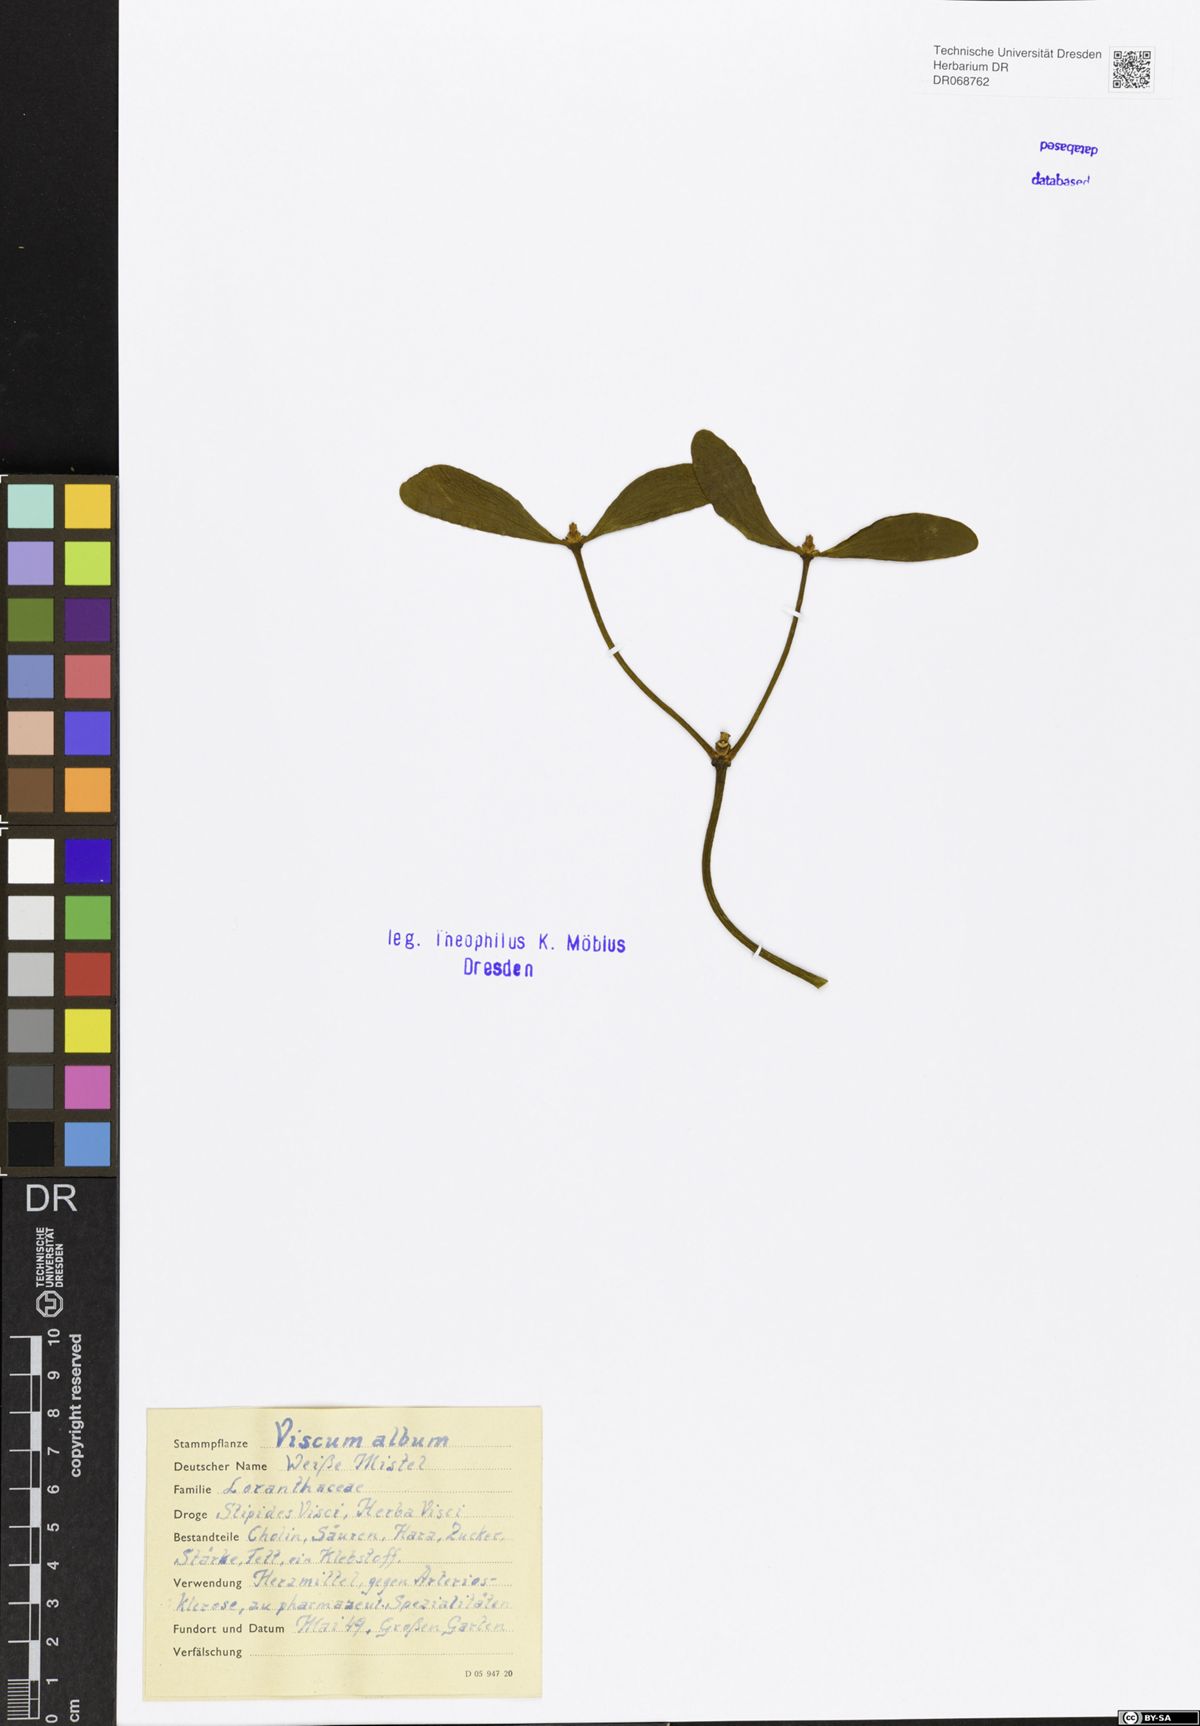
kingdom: Plantae
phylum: Tracheophyta
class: Magnoliopsida
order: Santalales
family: Viscaceae
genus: Viscum
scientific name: Viscum album
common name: Mistletoe
